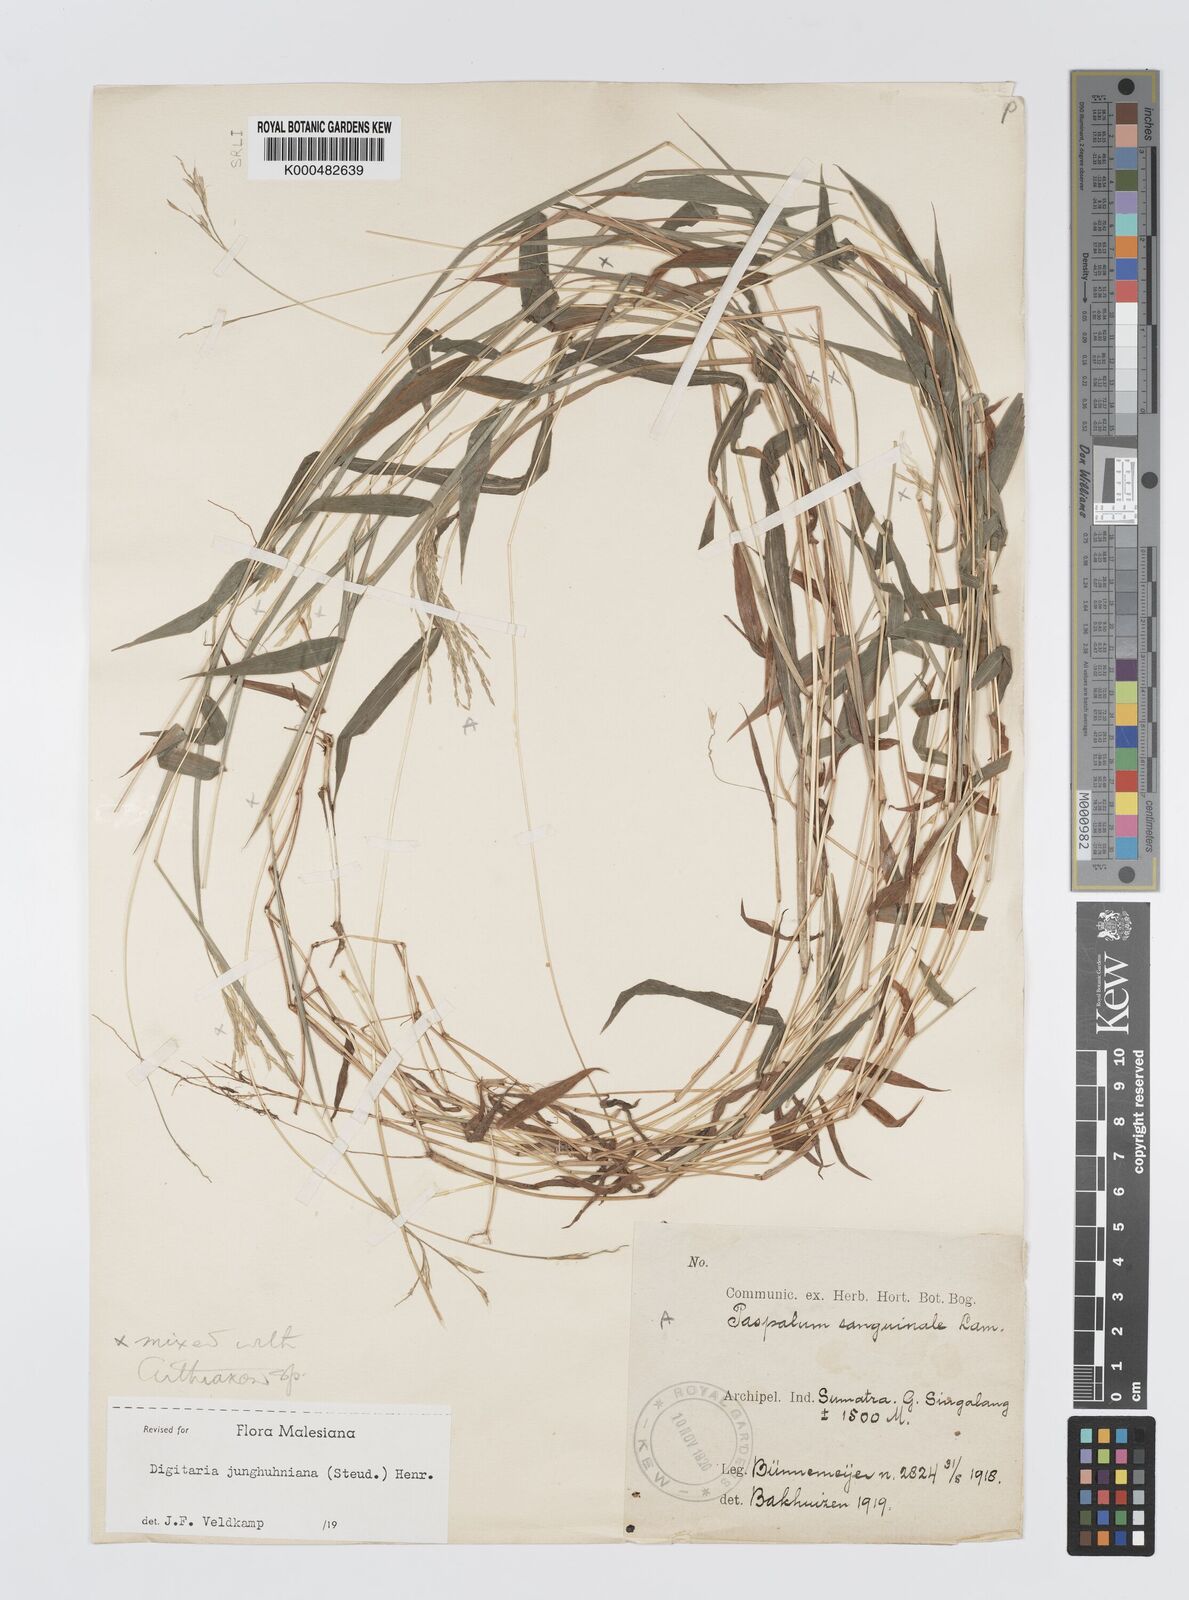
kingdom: Plantae
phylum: Tracheophyta
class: Liliopsida
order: Poales
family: Poaceae
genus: Digitaria
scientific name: Digitaria junghuhniana
